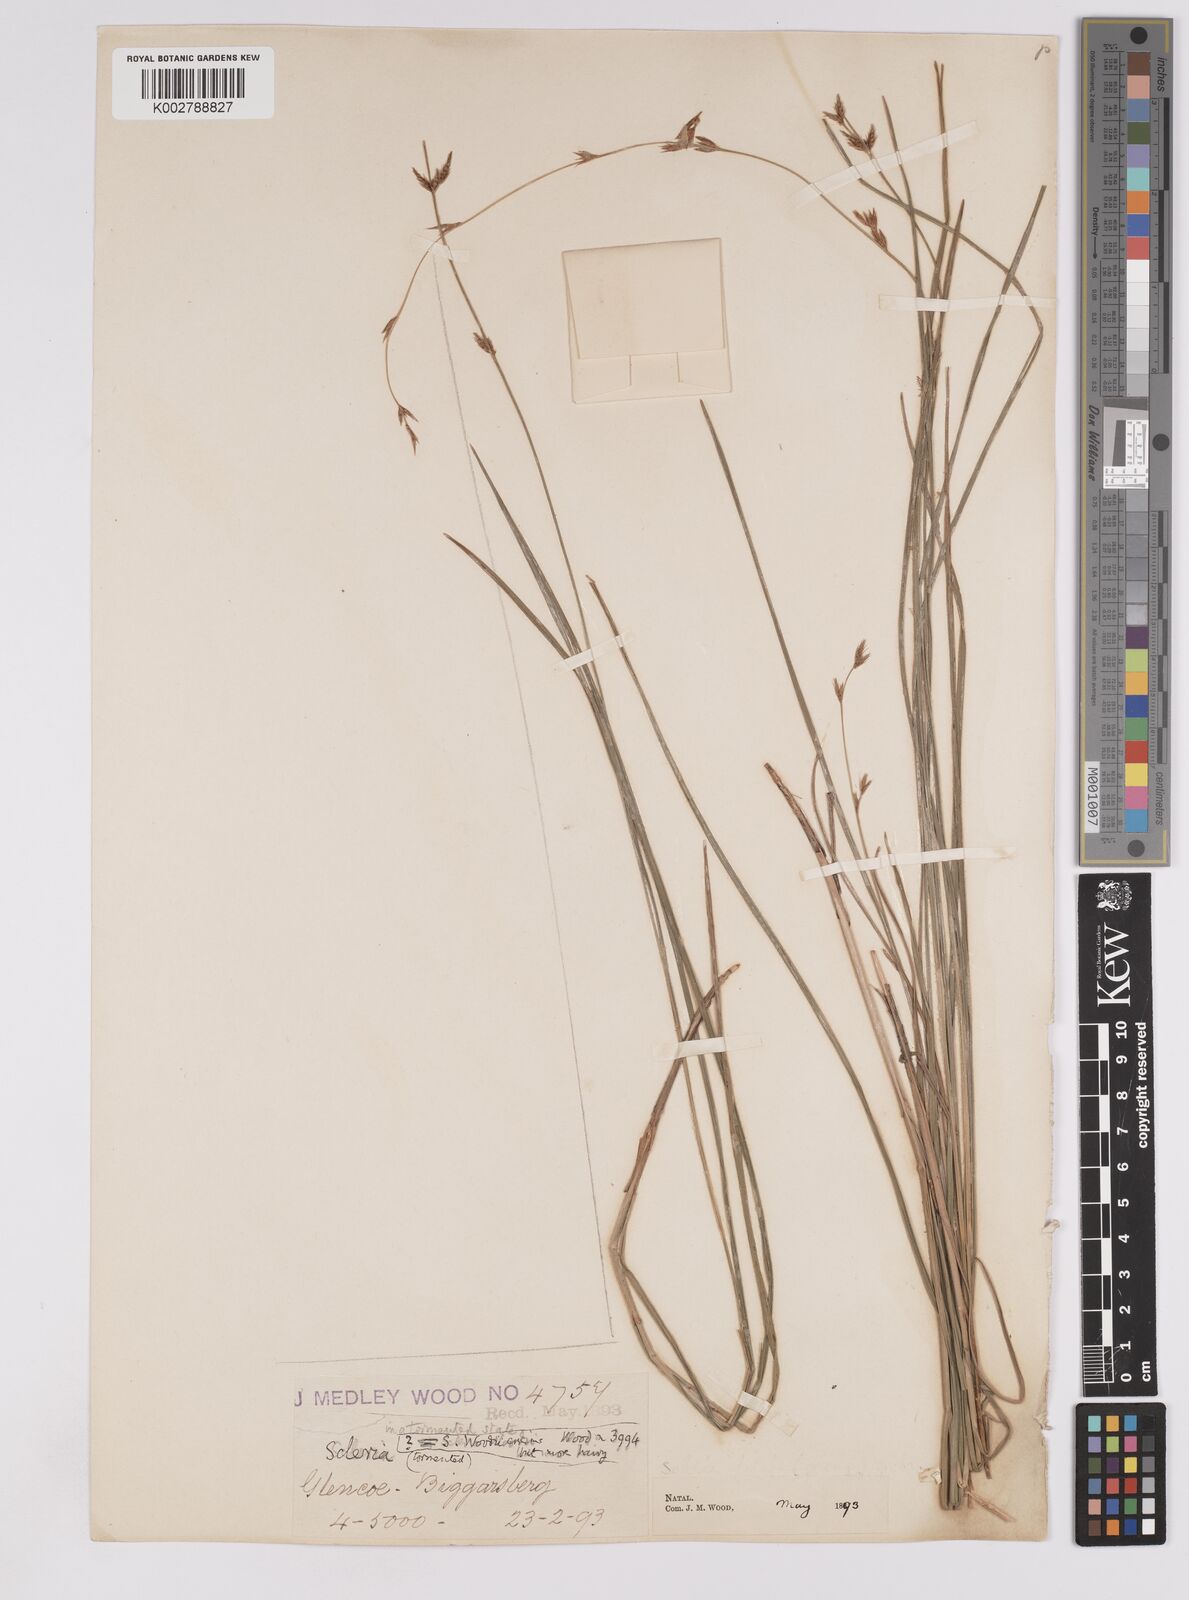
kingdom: Plantae
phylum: Tracheophyta
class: Liliopsida
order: Poales
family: Cyperaceae
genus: Scleria
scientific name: Scleria welwitschii
